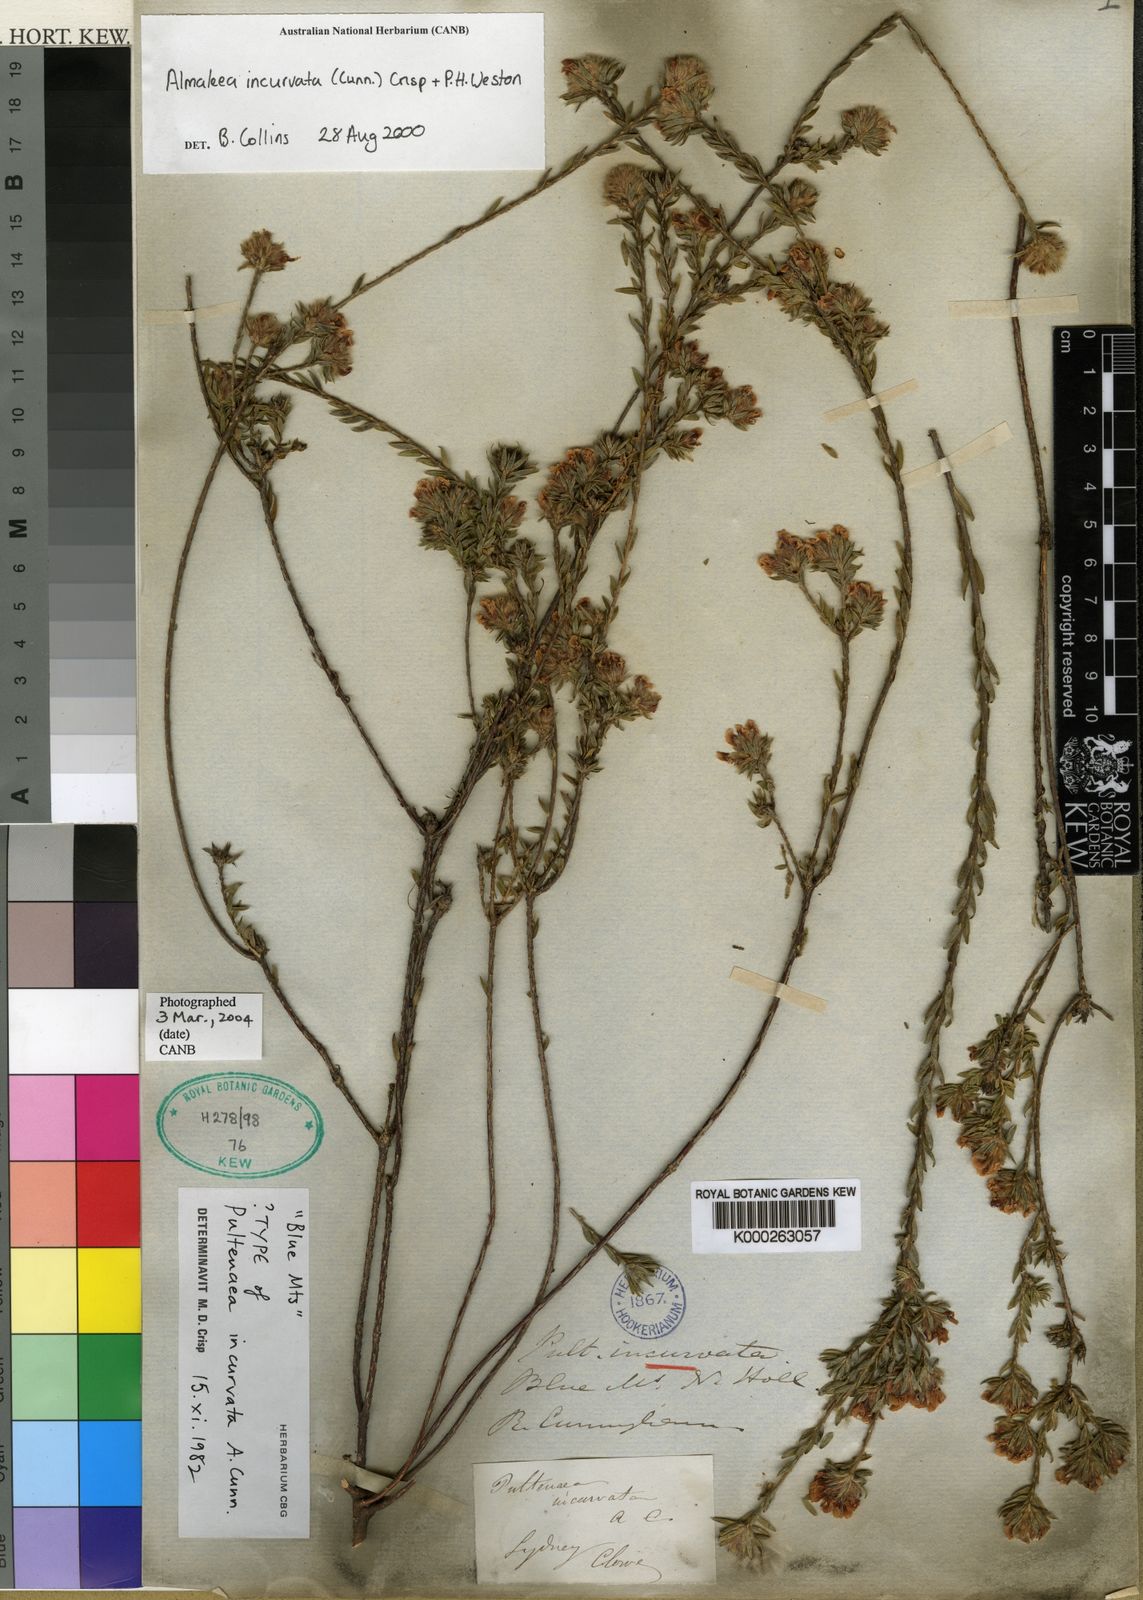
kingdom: Plantae
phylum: Tracheophyta
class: Magnoliopsida
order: Fabales
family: Fabaceae
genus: Almaleea
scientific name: Almaleea incurvata
